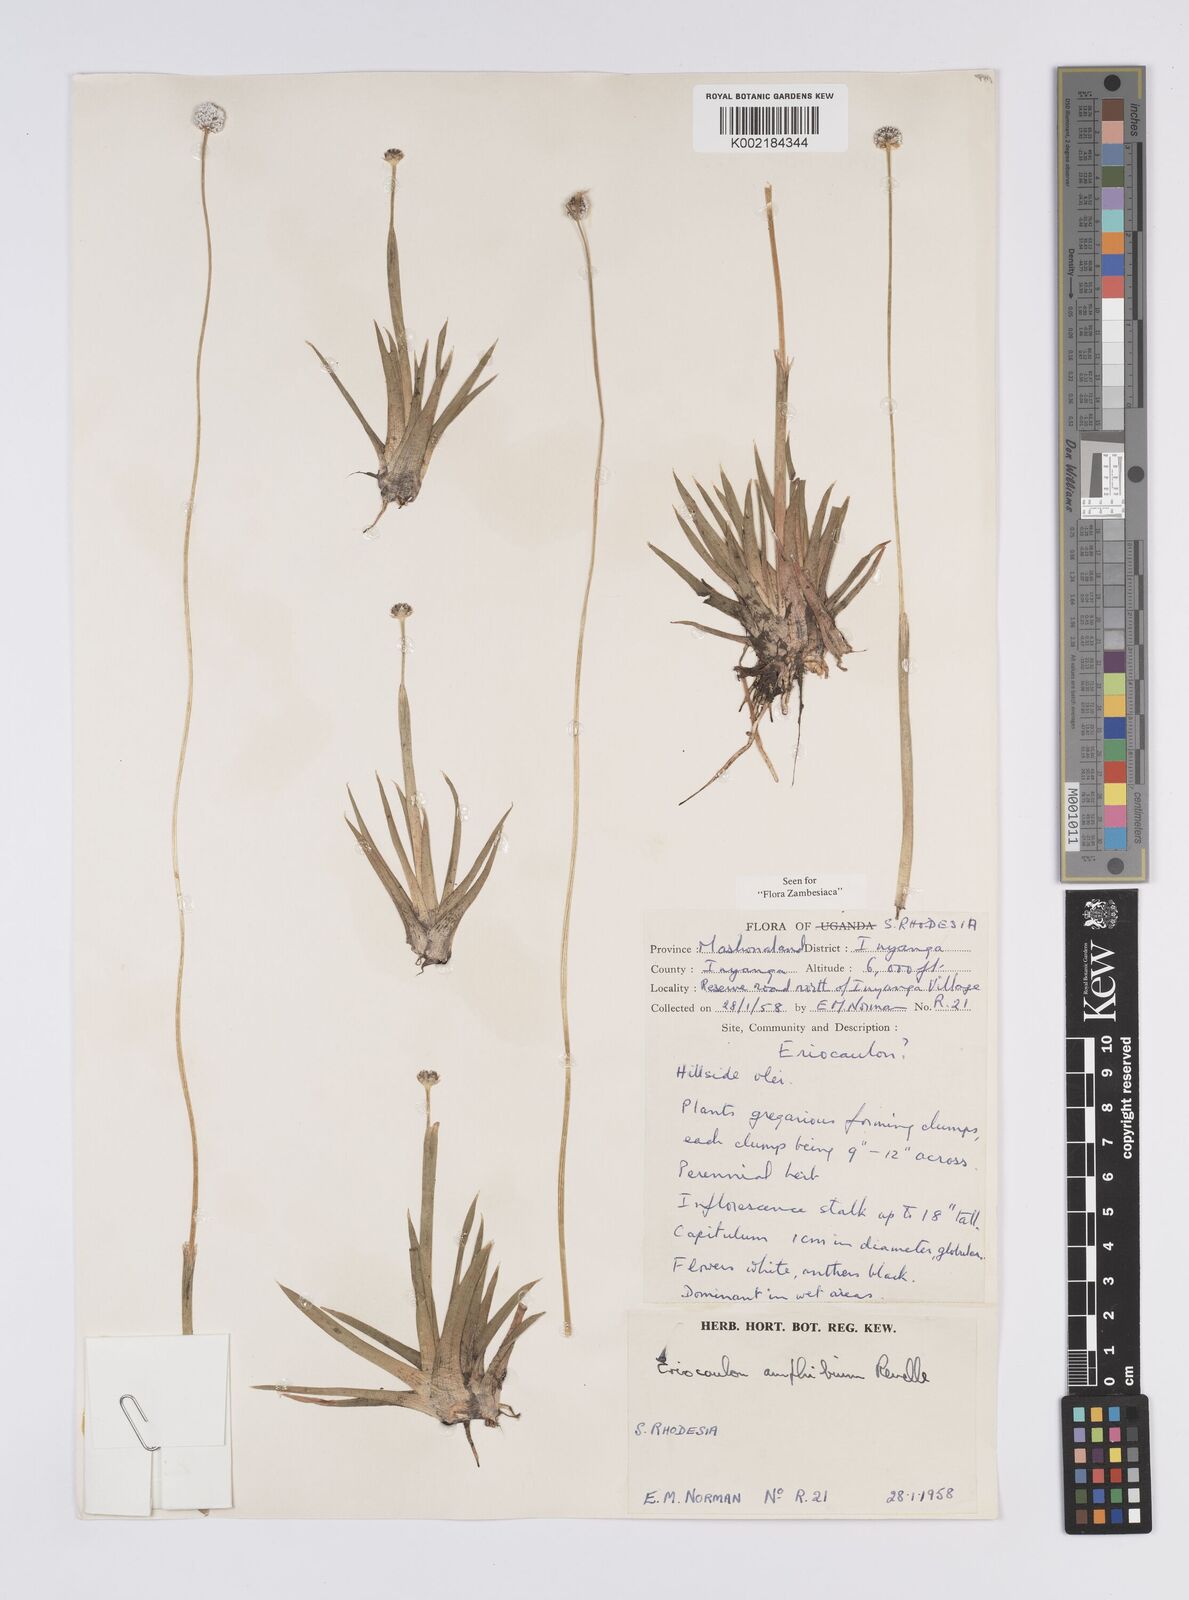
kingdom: Plantae
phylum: Tracheophyta
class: Liliopsida
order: Poales
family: Eriocaulaceae
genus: Eriocaulon
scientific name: Eriocaulon pictum
